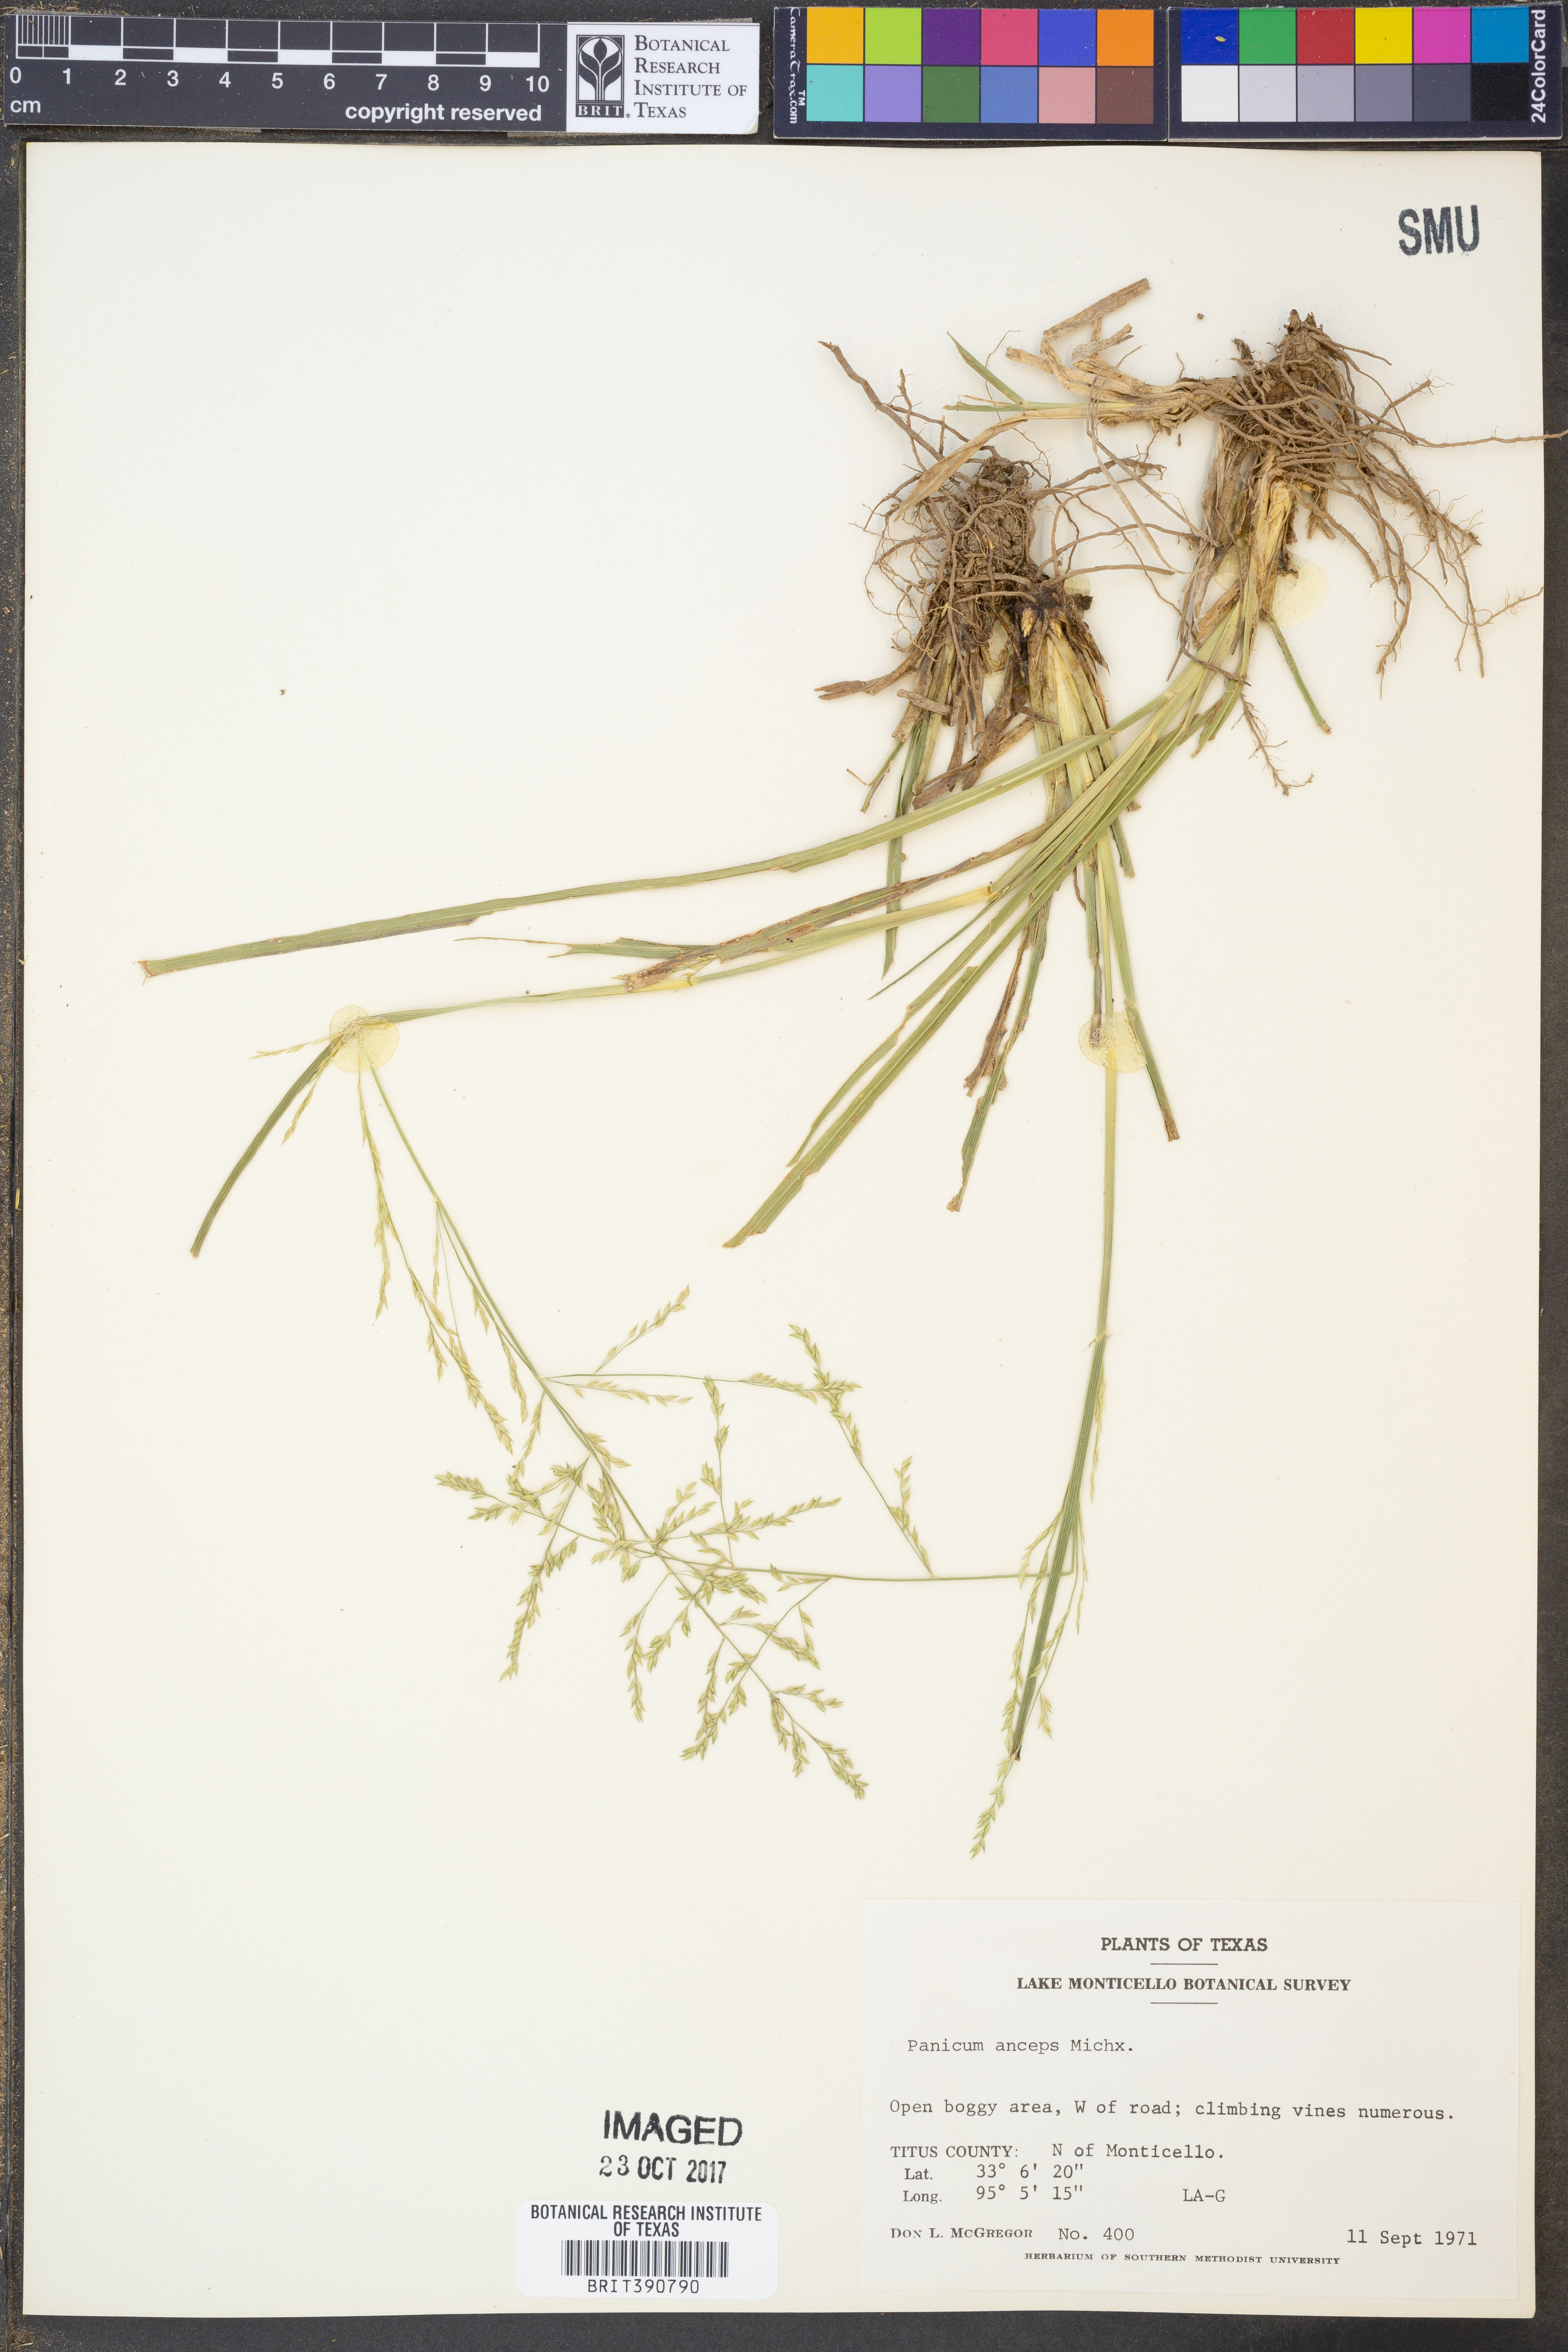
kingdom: Plantae
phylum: Tracheophyta
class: Liliopsida
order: Poales
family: Poaceae
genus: Coleataenia
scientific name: Coleataenia anceps
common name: Beaked panic grass
